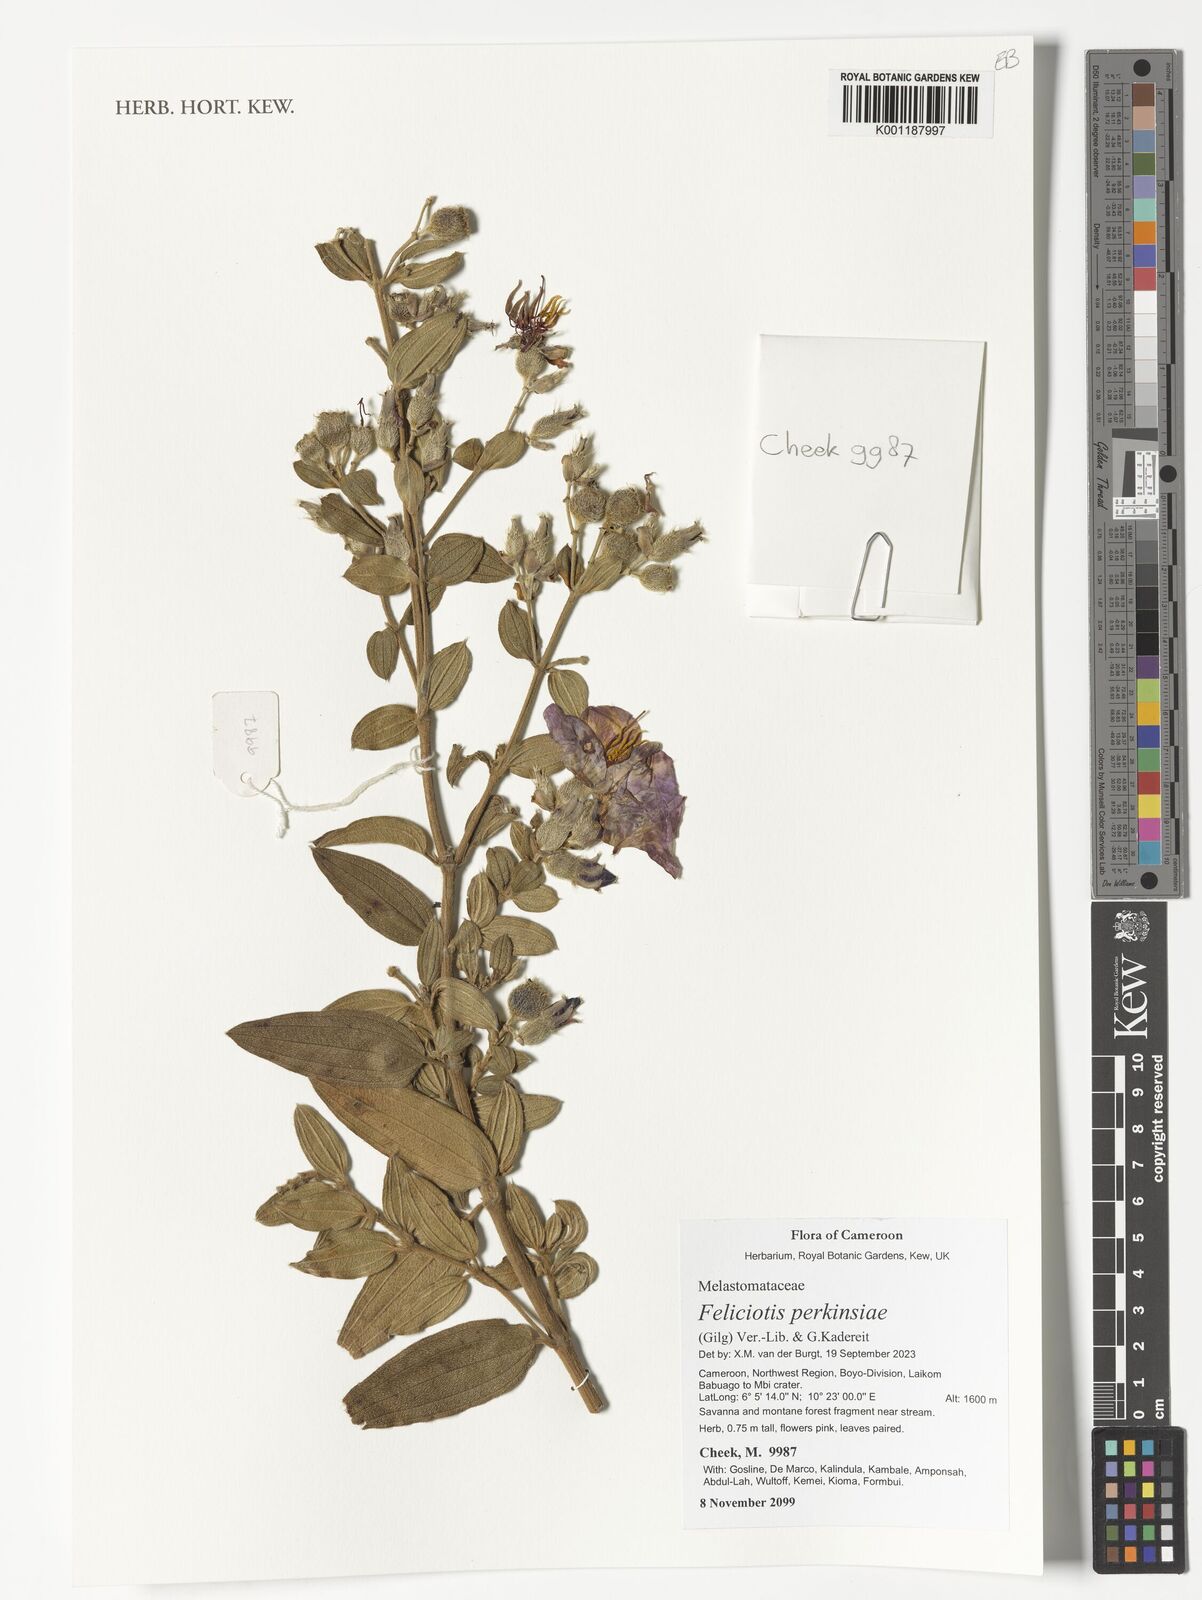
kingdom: Plantae
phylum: Tracheophyta
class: Magnoliopsida
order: Myrtales
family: Melastomataceae
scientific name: Melastomataceae
